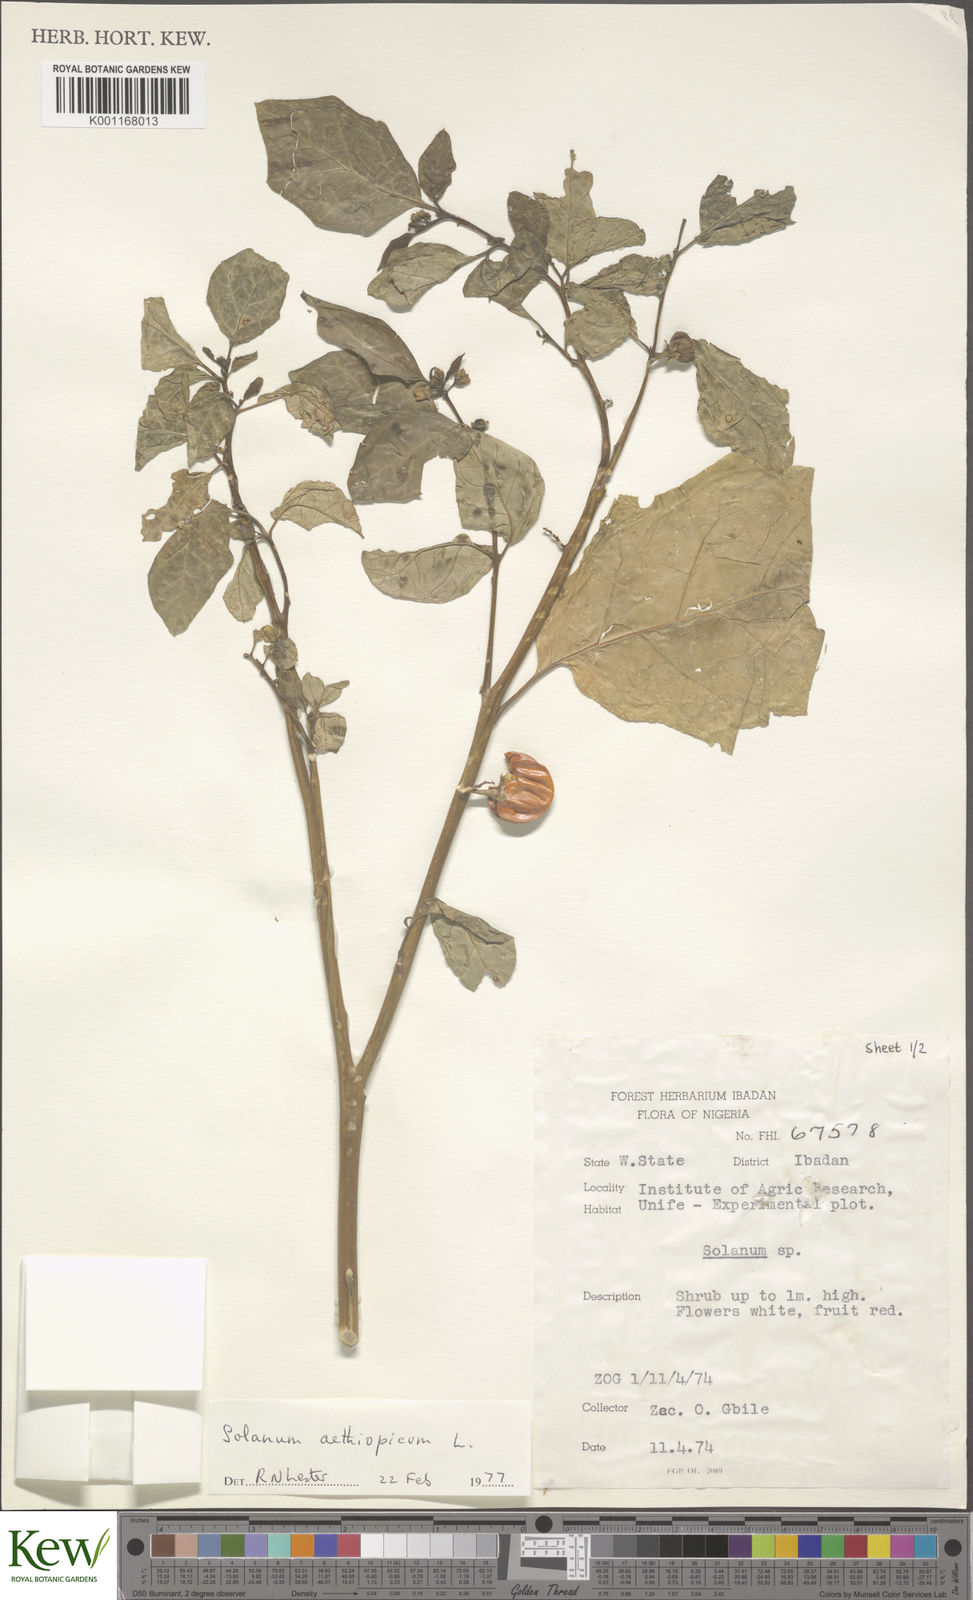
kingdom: Plantae
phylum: Tracheophyta
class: Magnoliopsida
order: Solanales
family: Solanaceae
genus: Solanum
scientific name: Solanum aethiopicum
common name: Gilo
